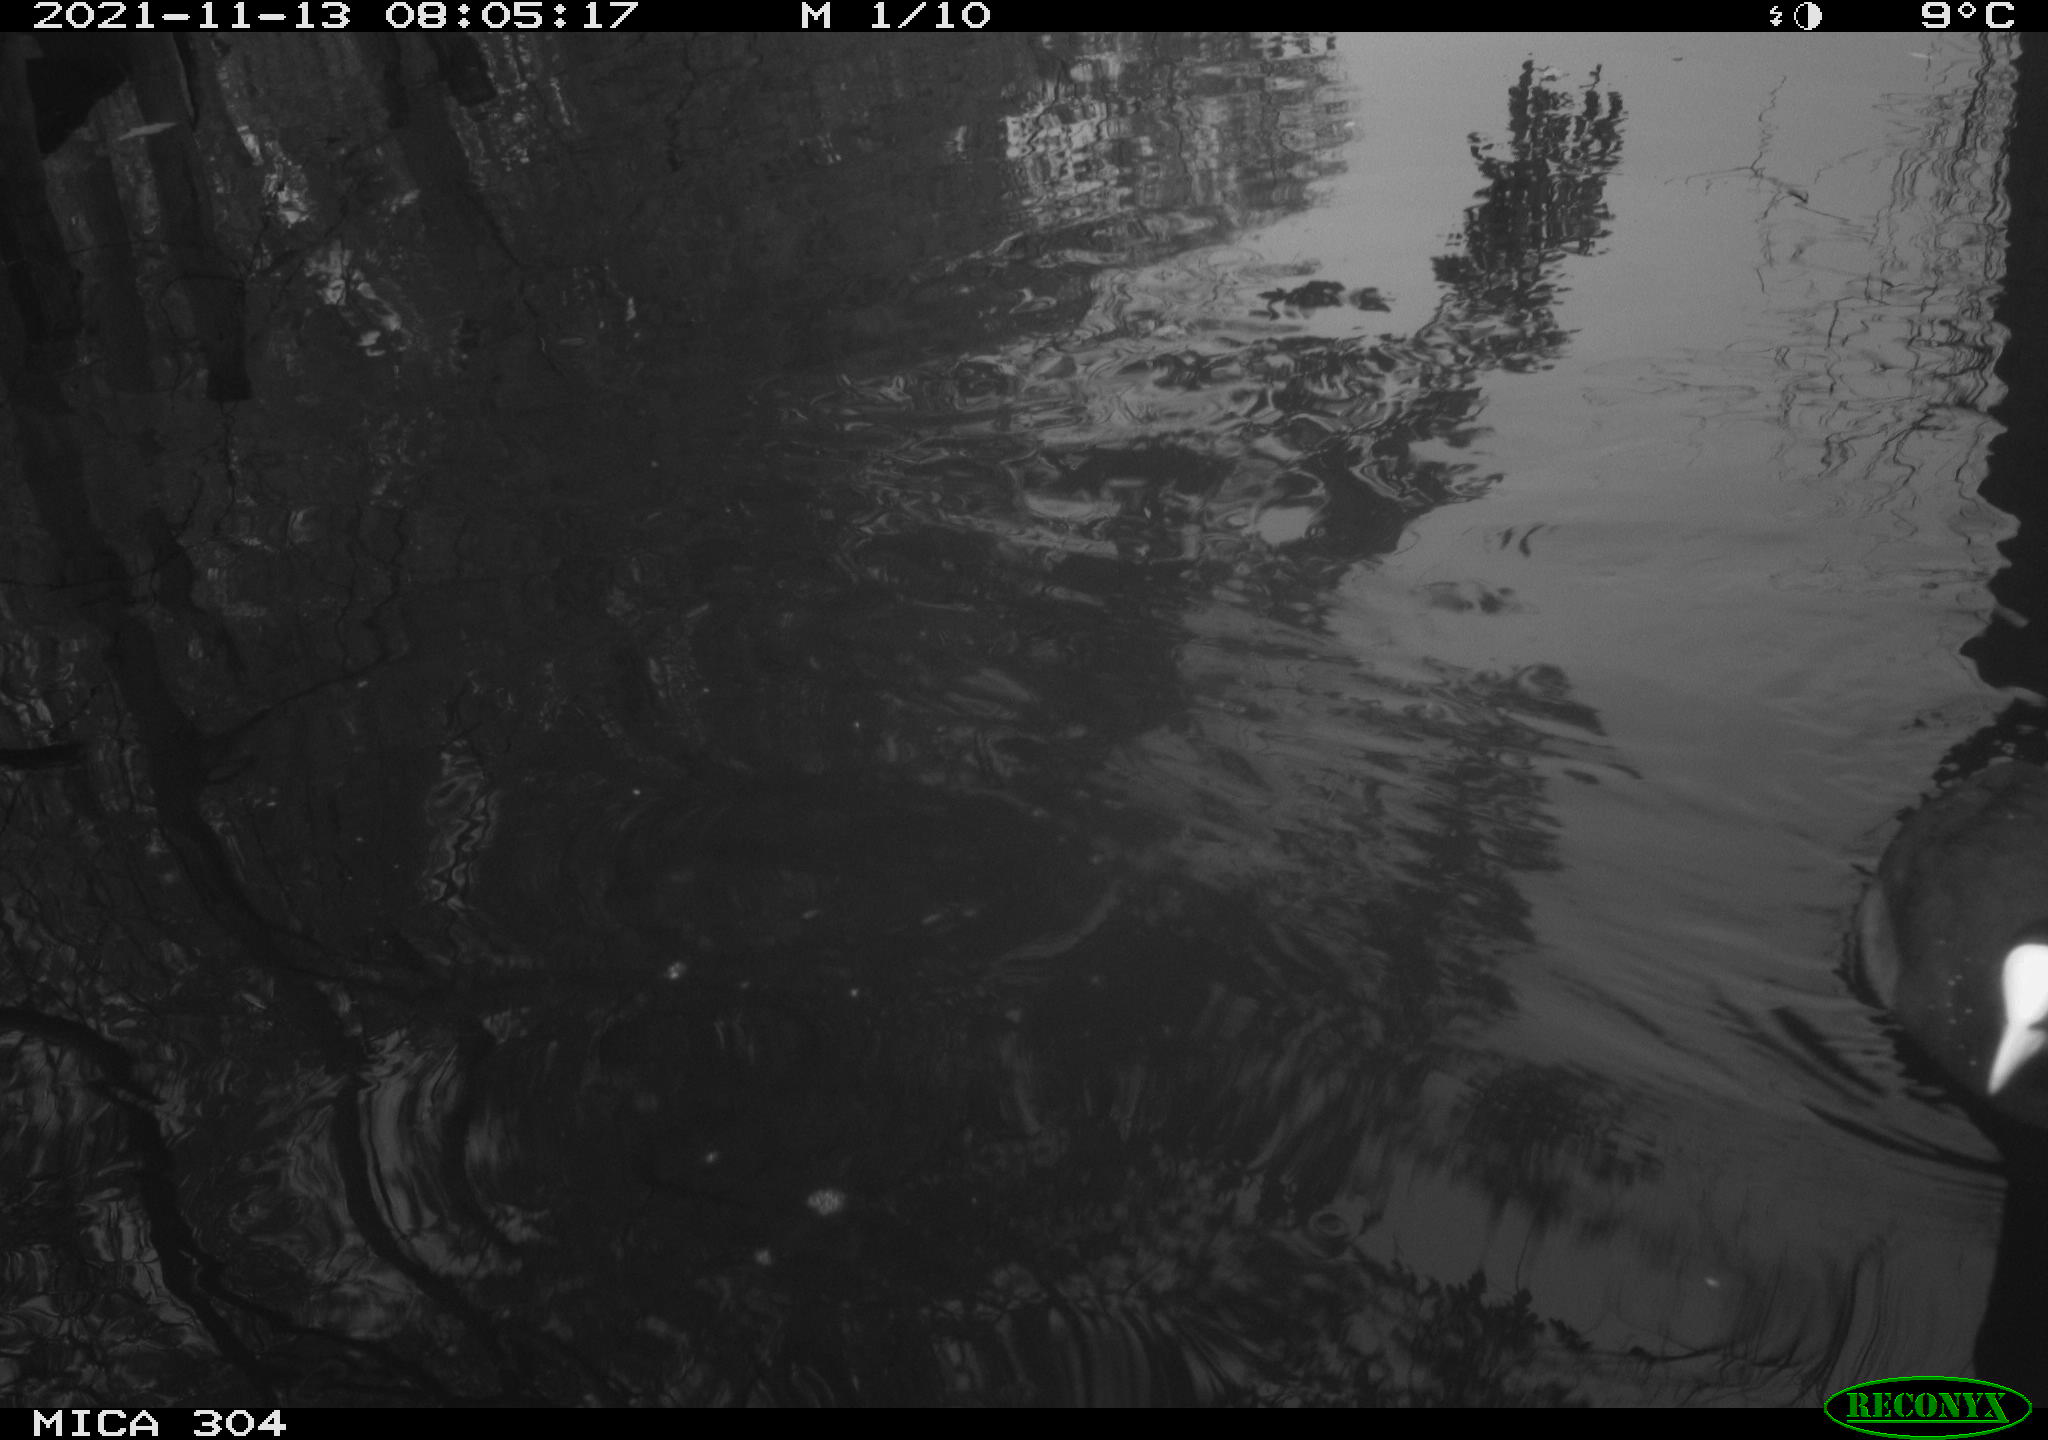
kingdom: Animalia
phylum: Chordata
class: Aves
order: Gruiformes
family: Rallidae
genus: Fulica
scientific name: Fulica atra
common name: Eurasian coot
